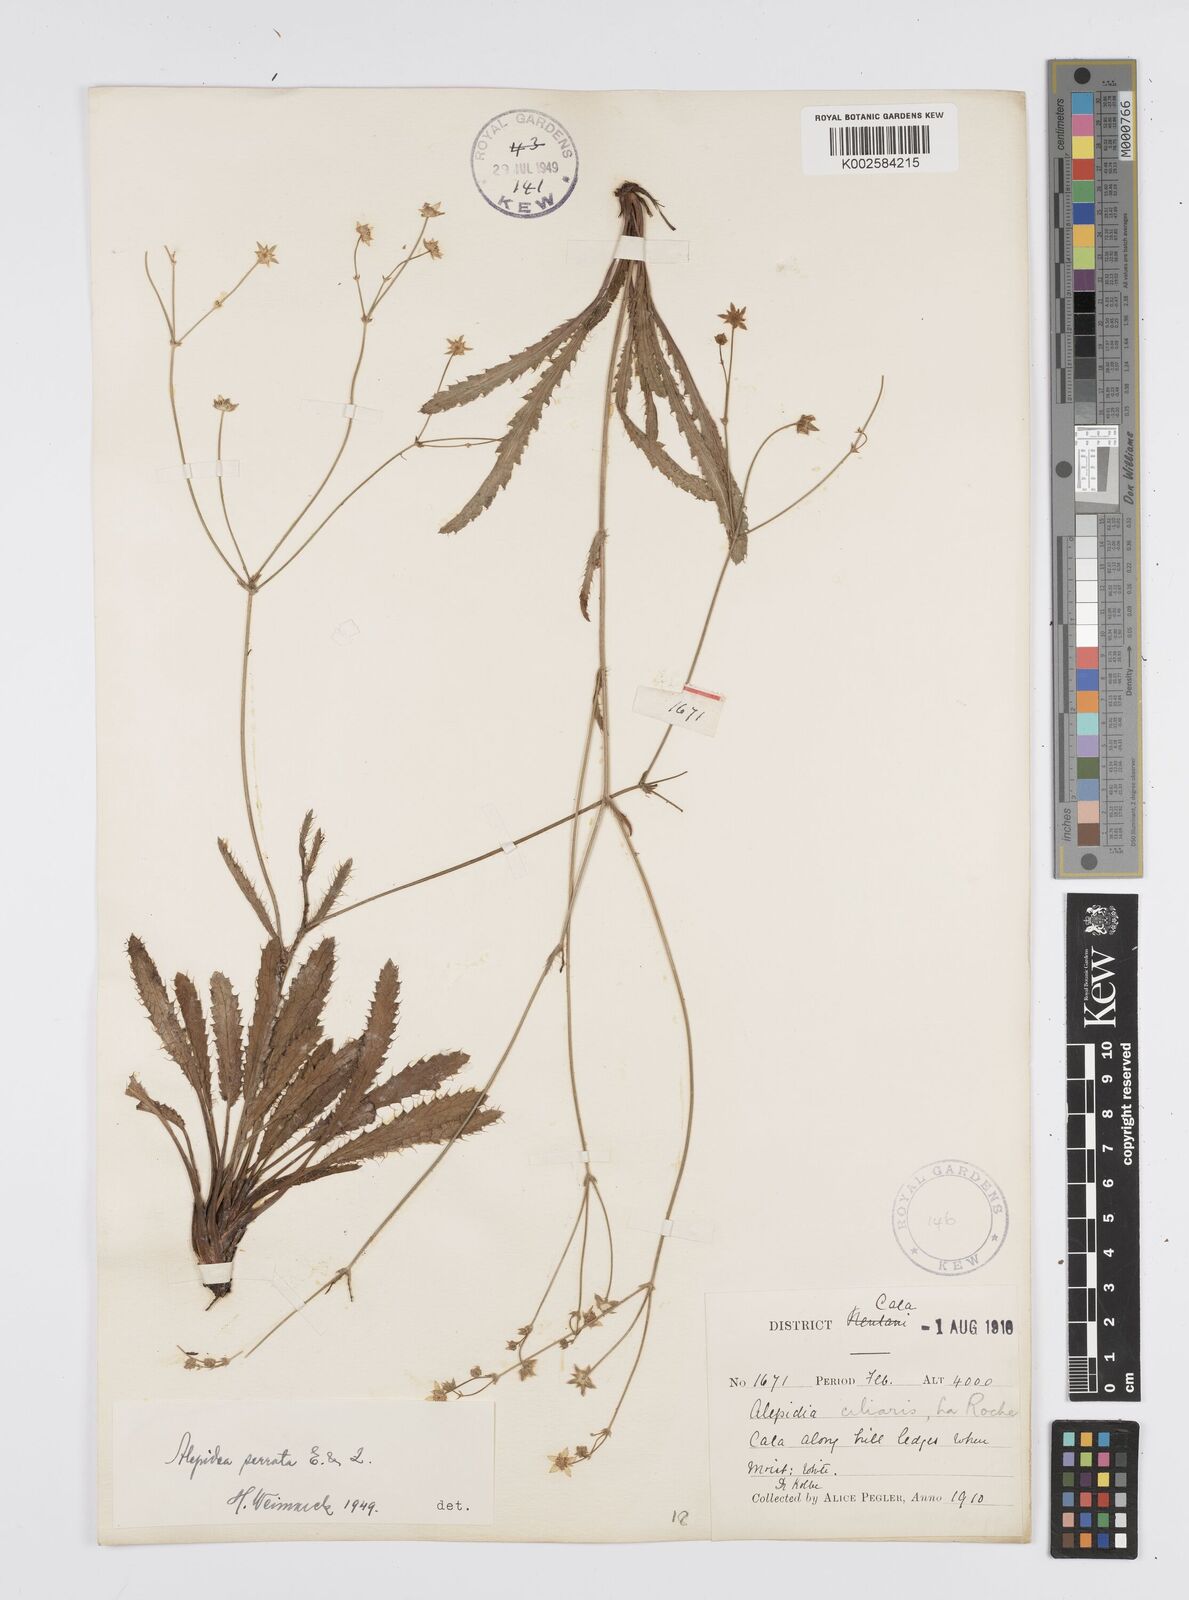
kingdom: Plantae
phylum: Tracheophyta
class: Magnoliopsida
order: Apiales
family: Apiaceae
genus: Alepidea
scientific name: Alepidea serrata
